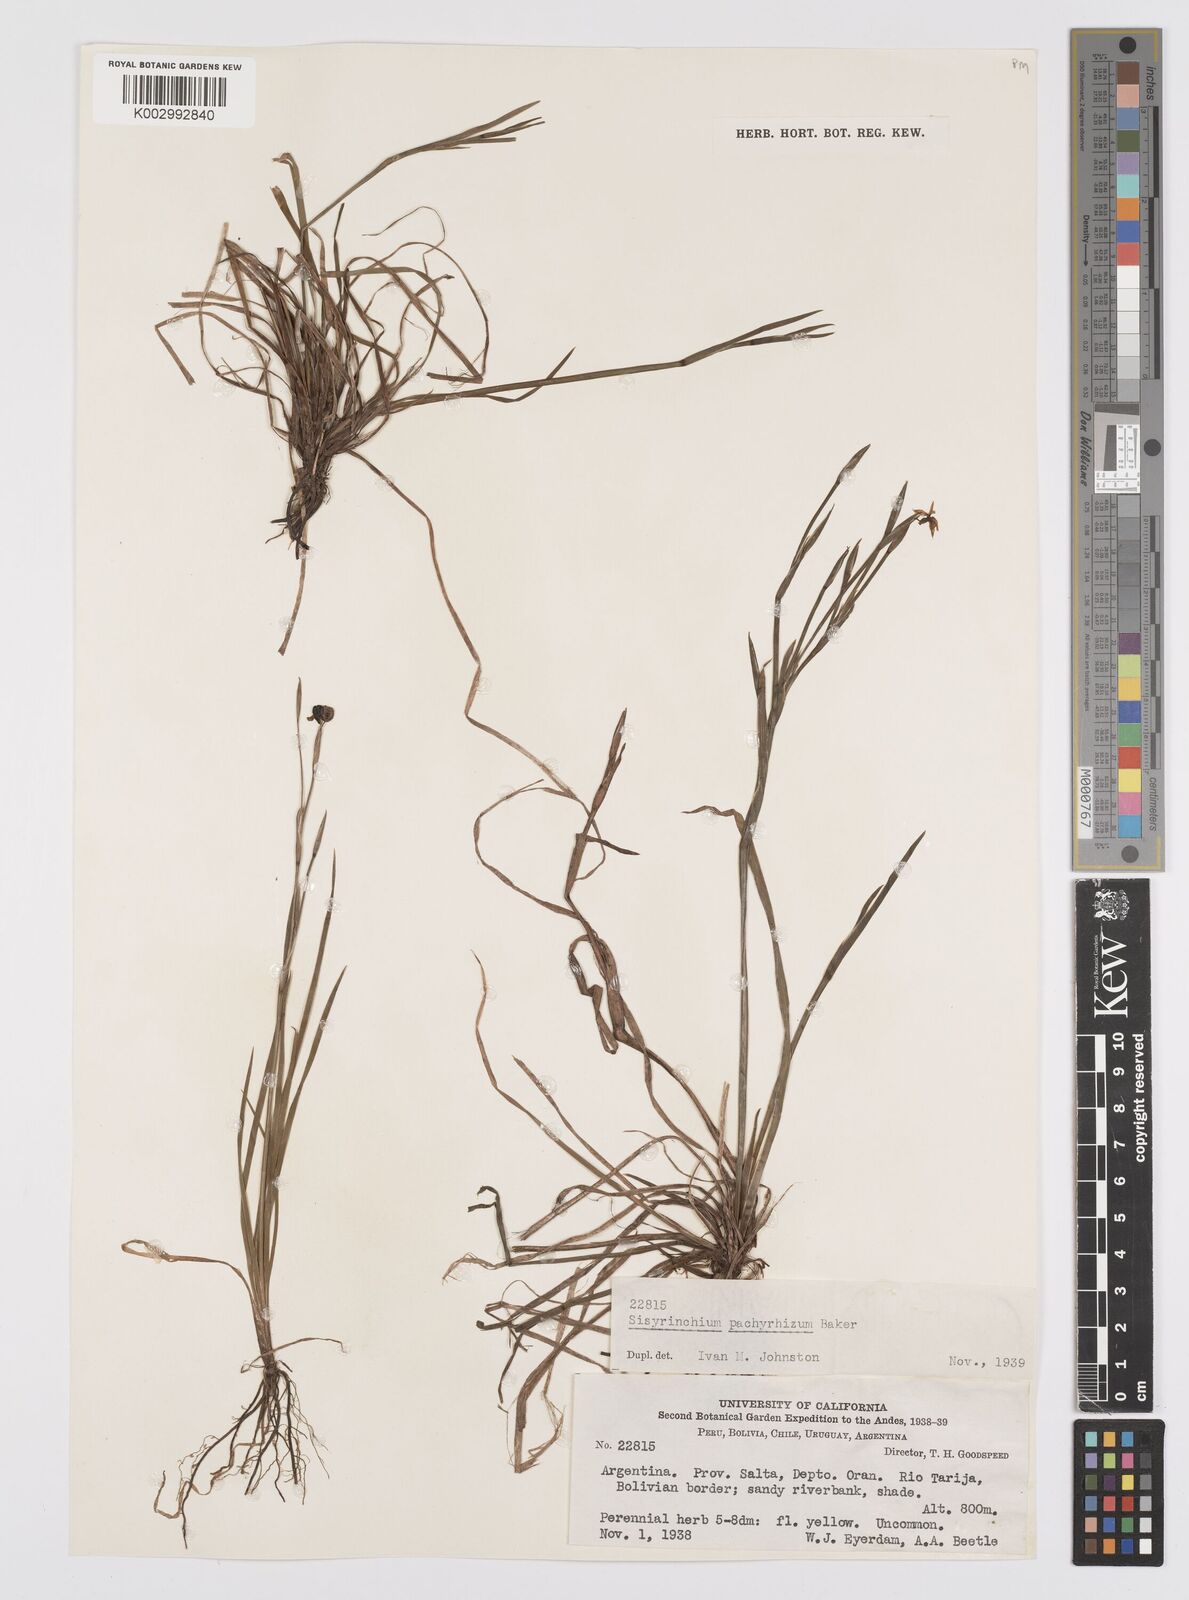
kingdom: Plantae
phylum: Tracheophyta
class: Liliopsida
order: Asparagales
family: Iridaceae
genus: Sisyrinchium
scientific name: Sisyrinchium pachyrhizum
